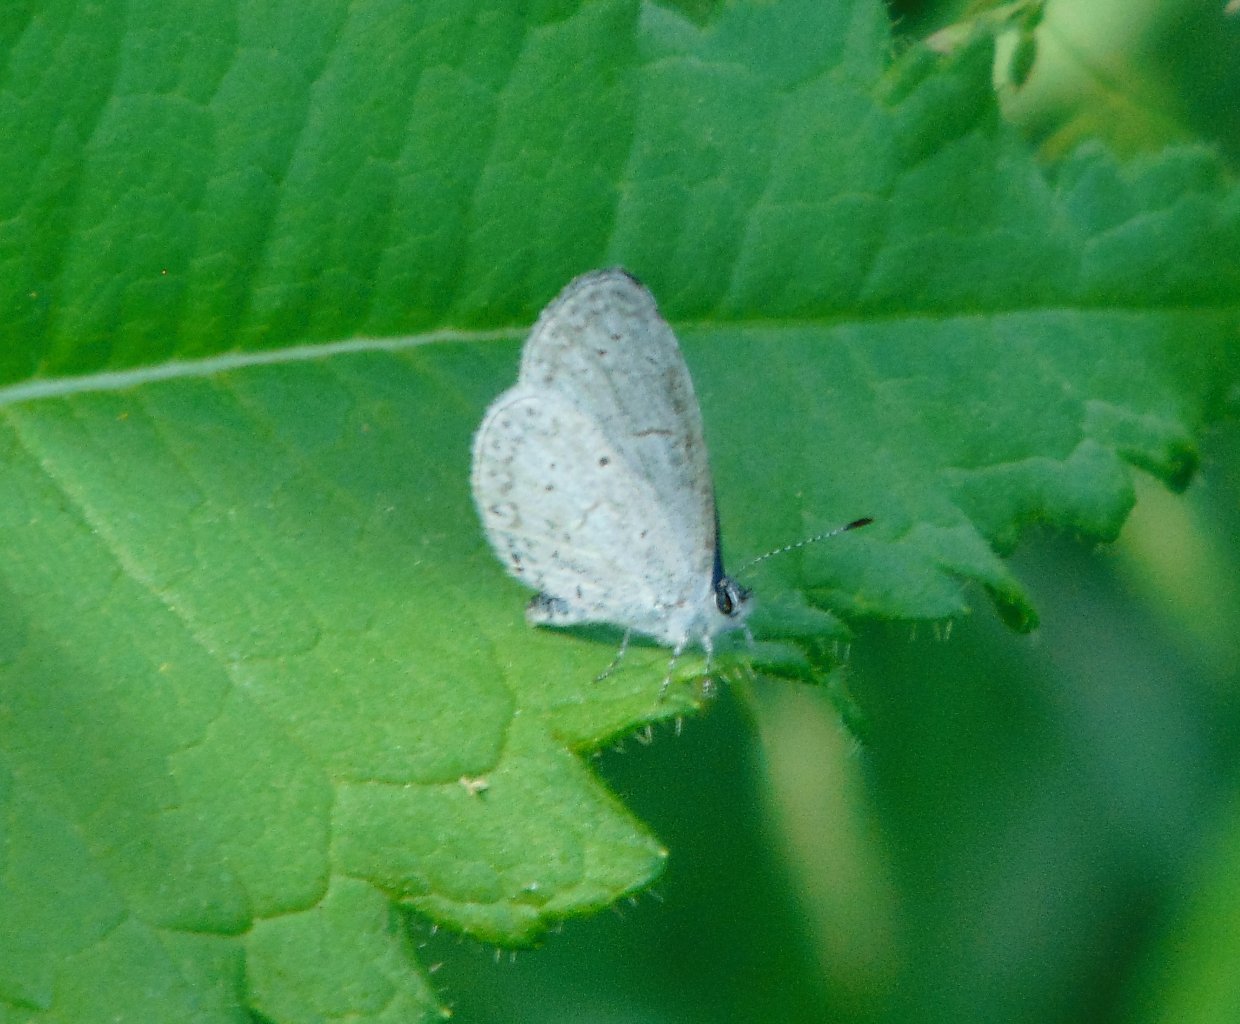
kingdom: Animalia
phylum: Arthropoda
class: Insecta
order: Lepidoptera
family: Lycaenidae
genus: Cyaniris
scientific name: Cyaniris neglecta
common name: Summer Azure
